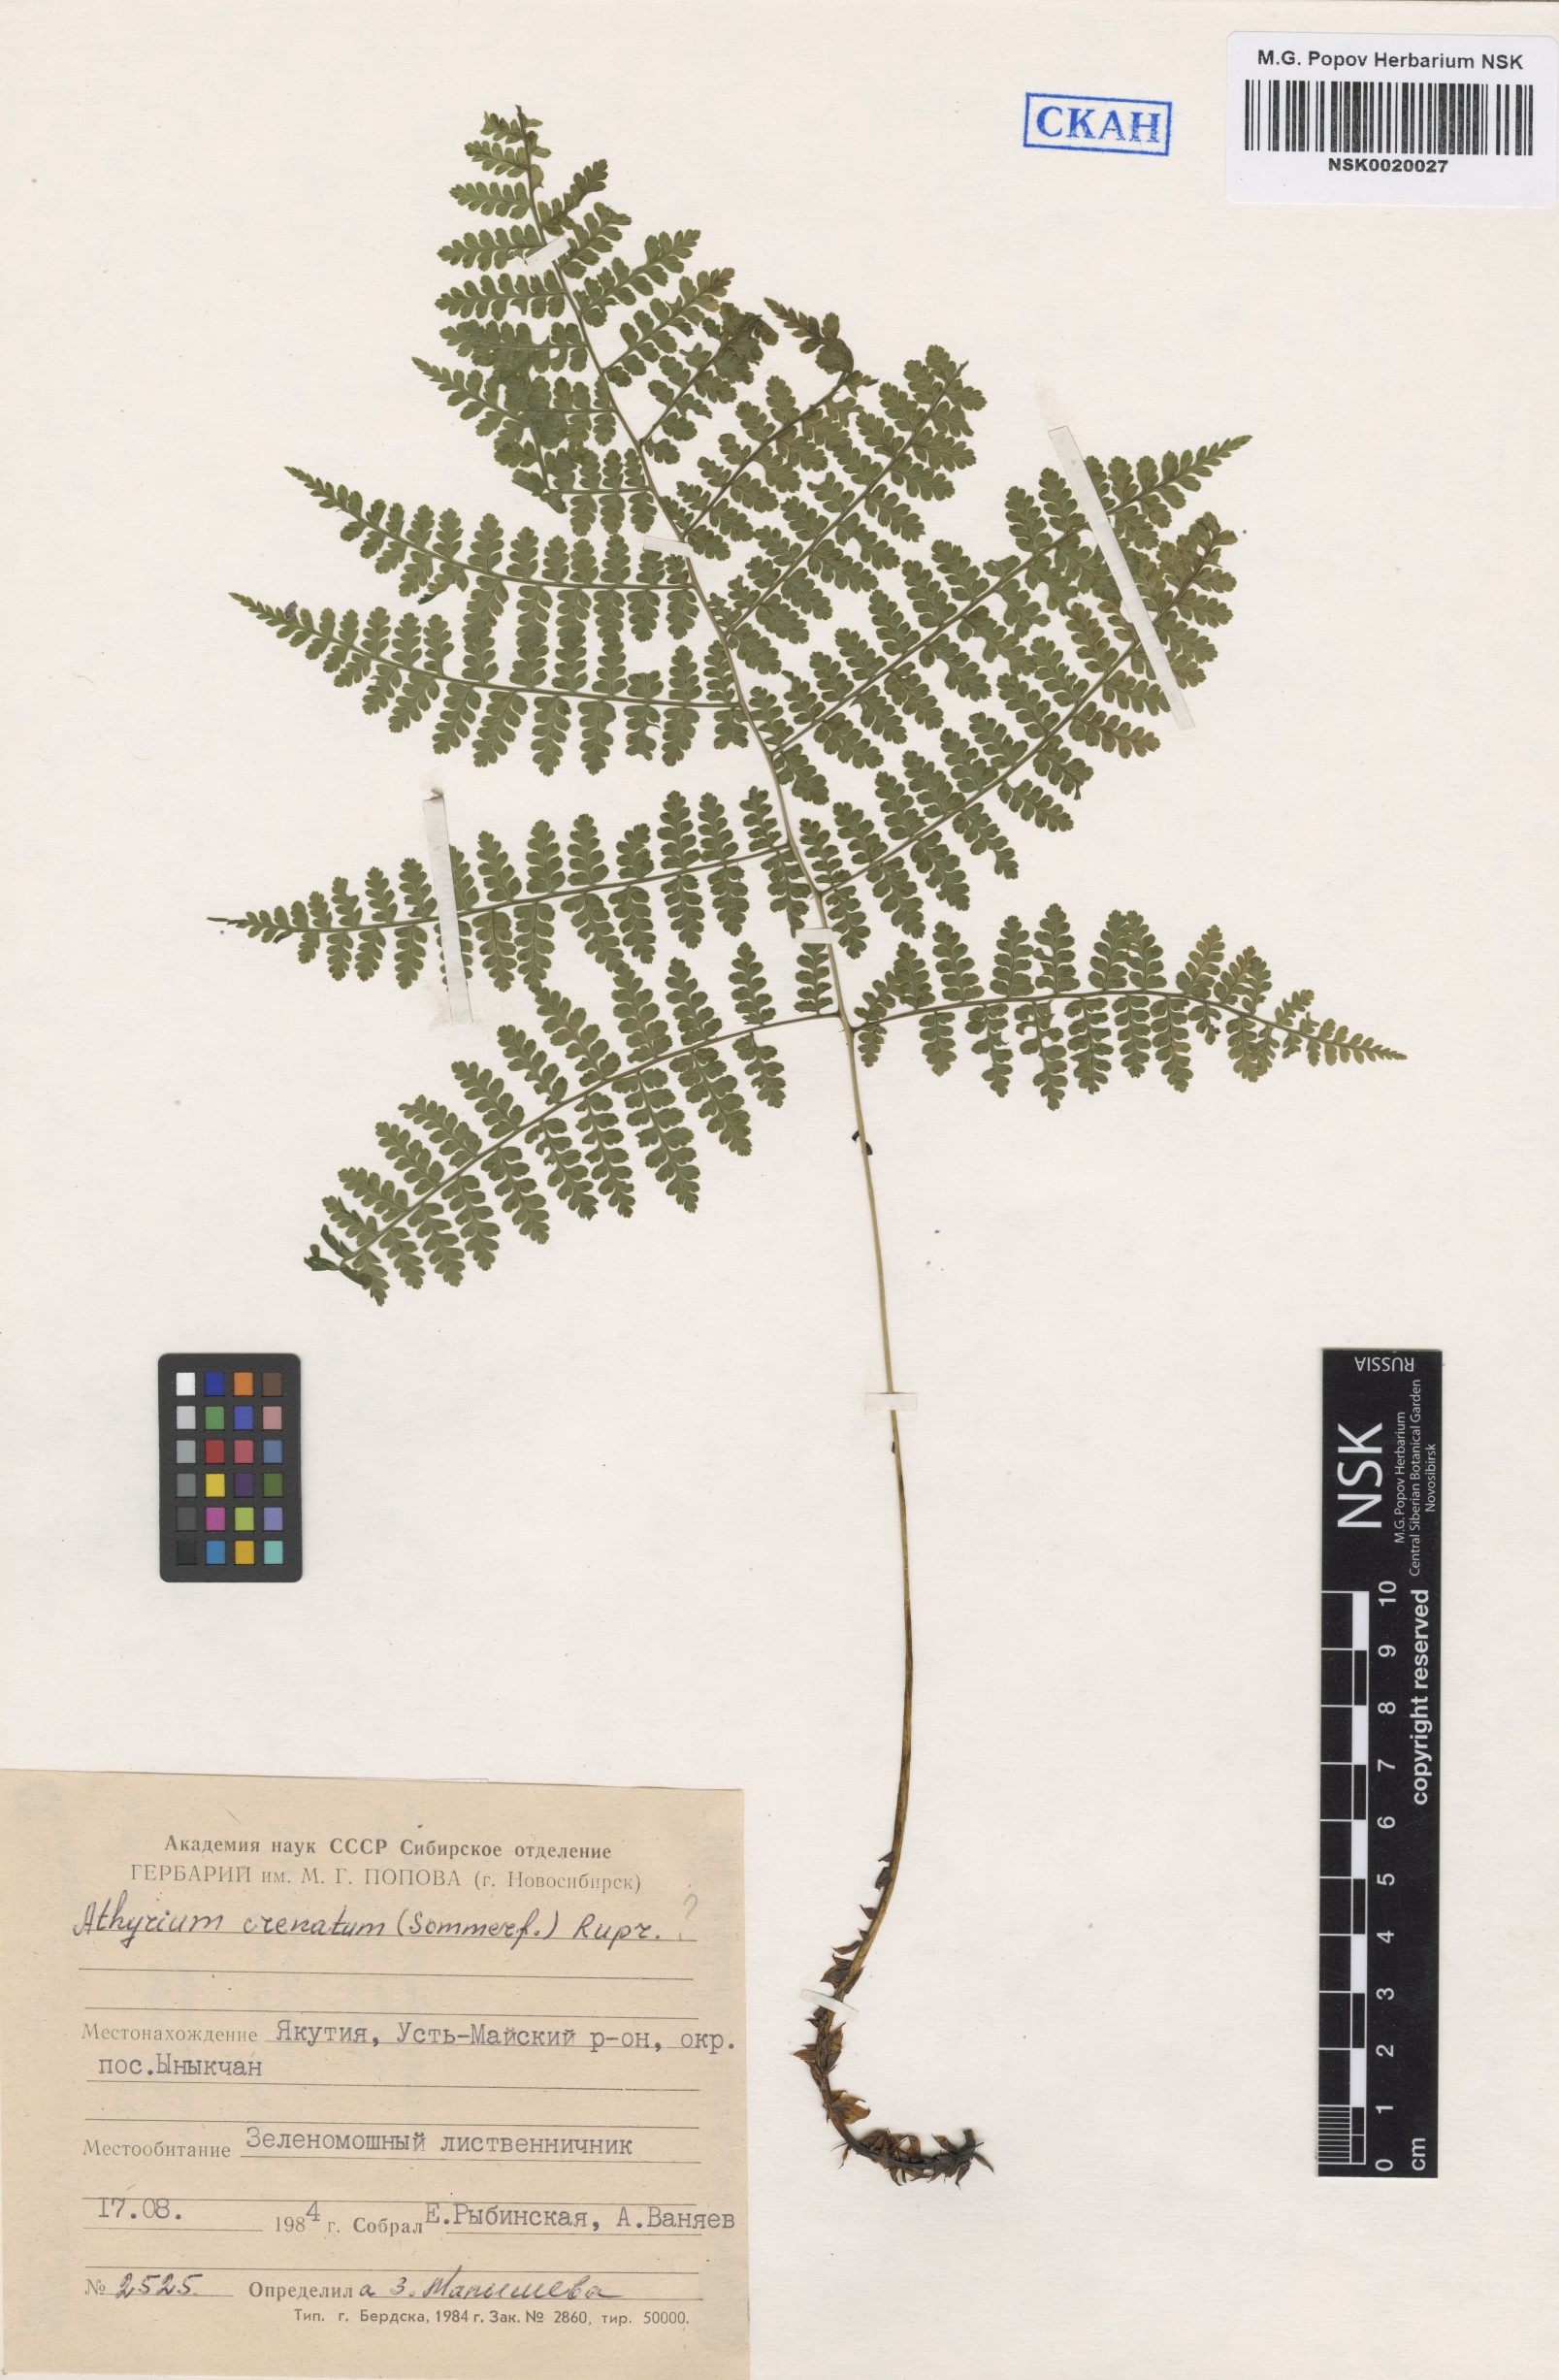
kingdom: Plantae
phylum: Tracheophyta
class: Polypodiopsida
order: Polypodiales
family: Athyriaceae
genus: Diplazium
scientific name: Diplazium sibiricum
